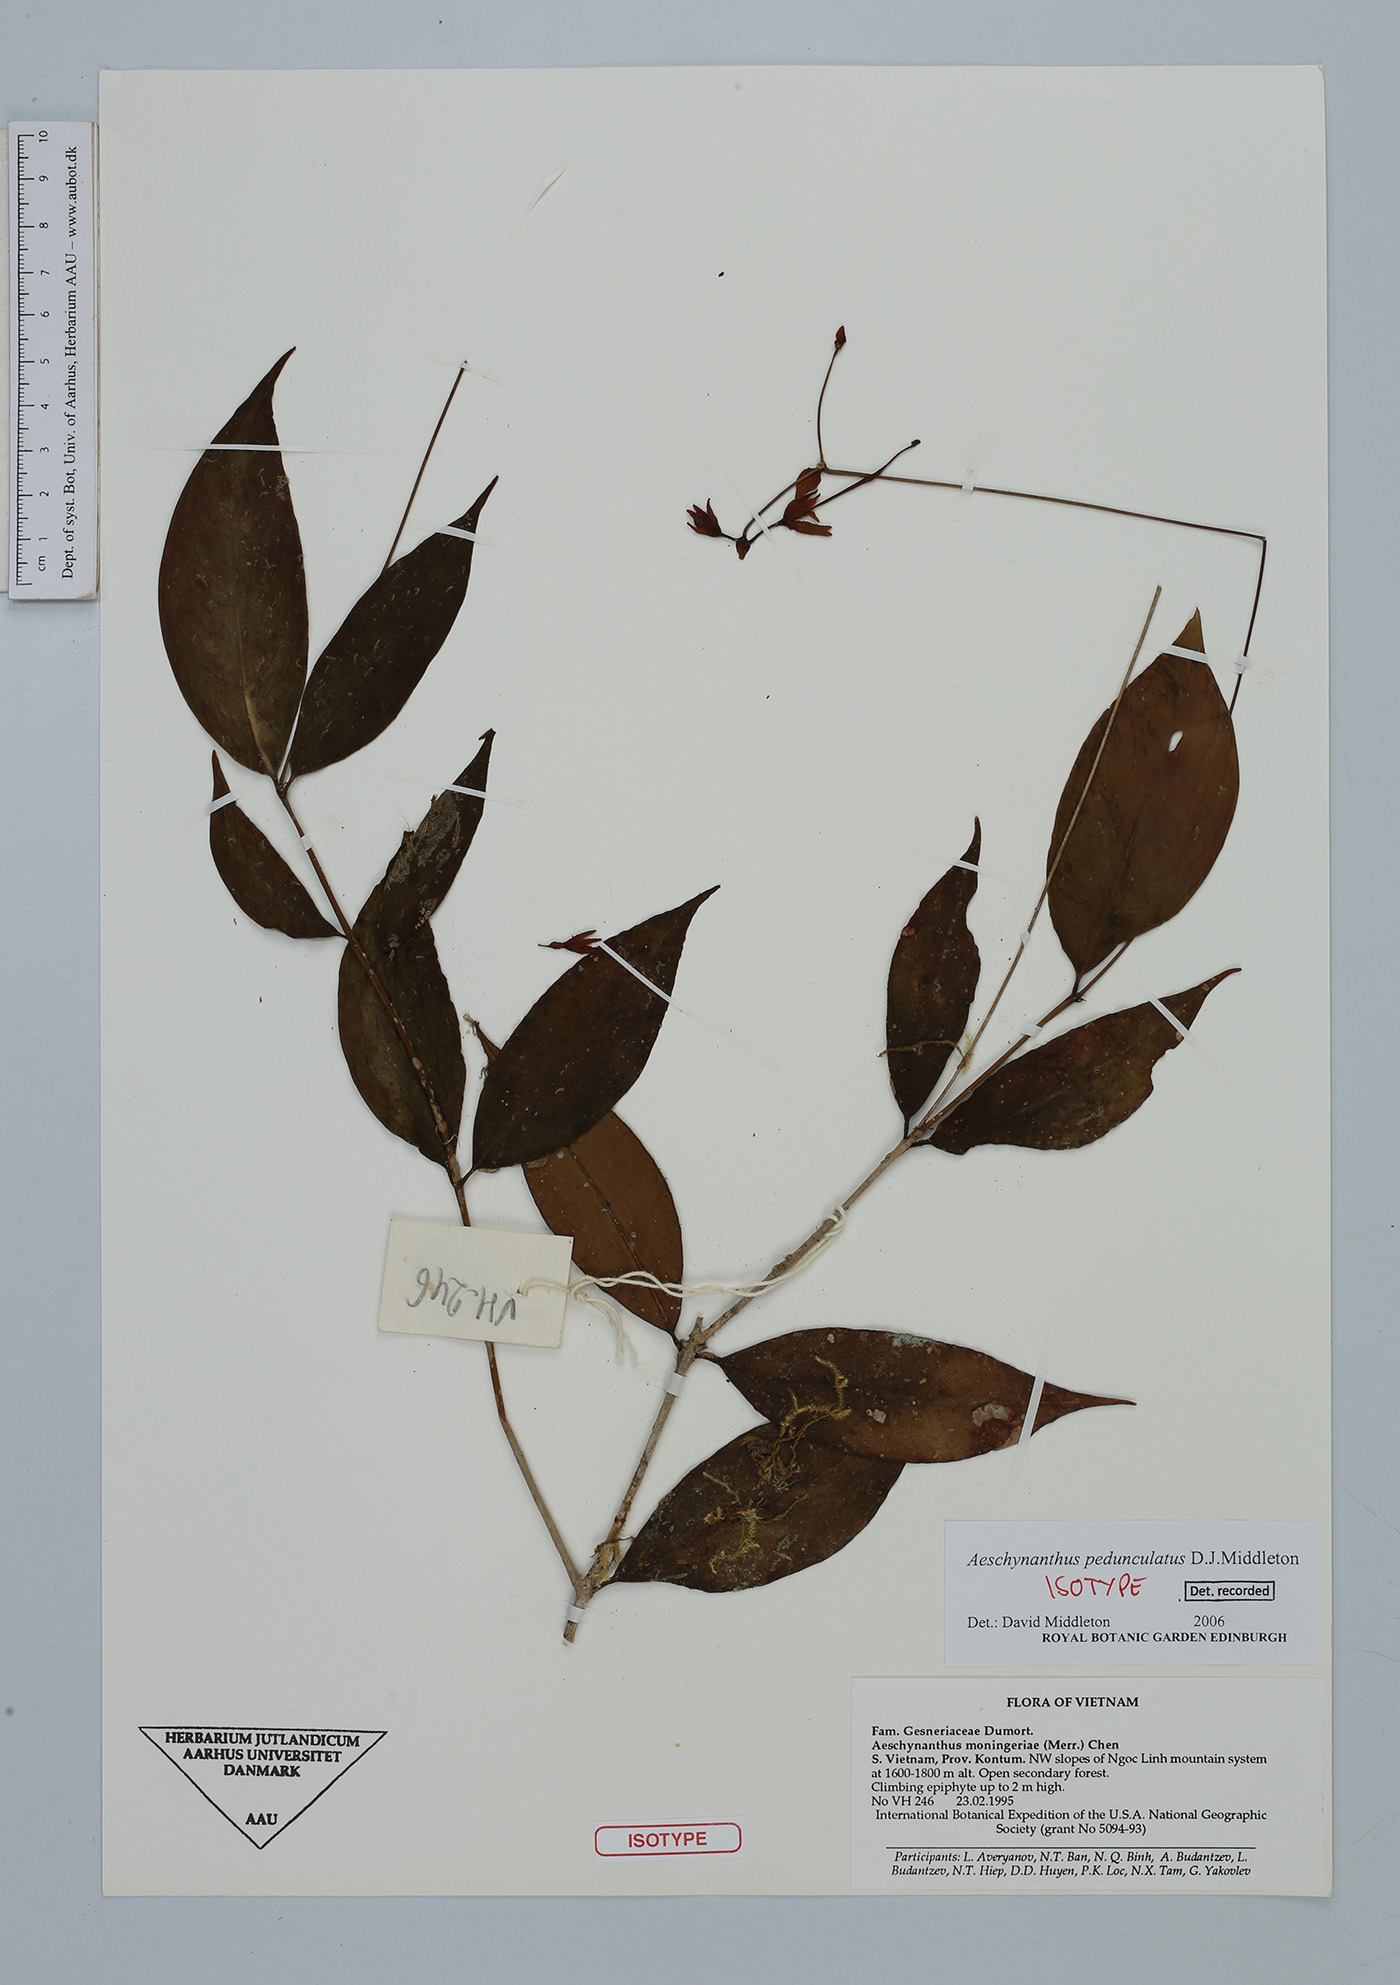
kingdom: Plantae
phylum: Tracheophyta
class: Magnoliopsida
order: Lamiales
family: Gesneriaceae
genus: Aeschynanthus
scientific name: Aeschynanthus pedunculatus
